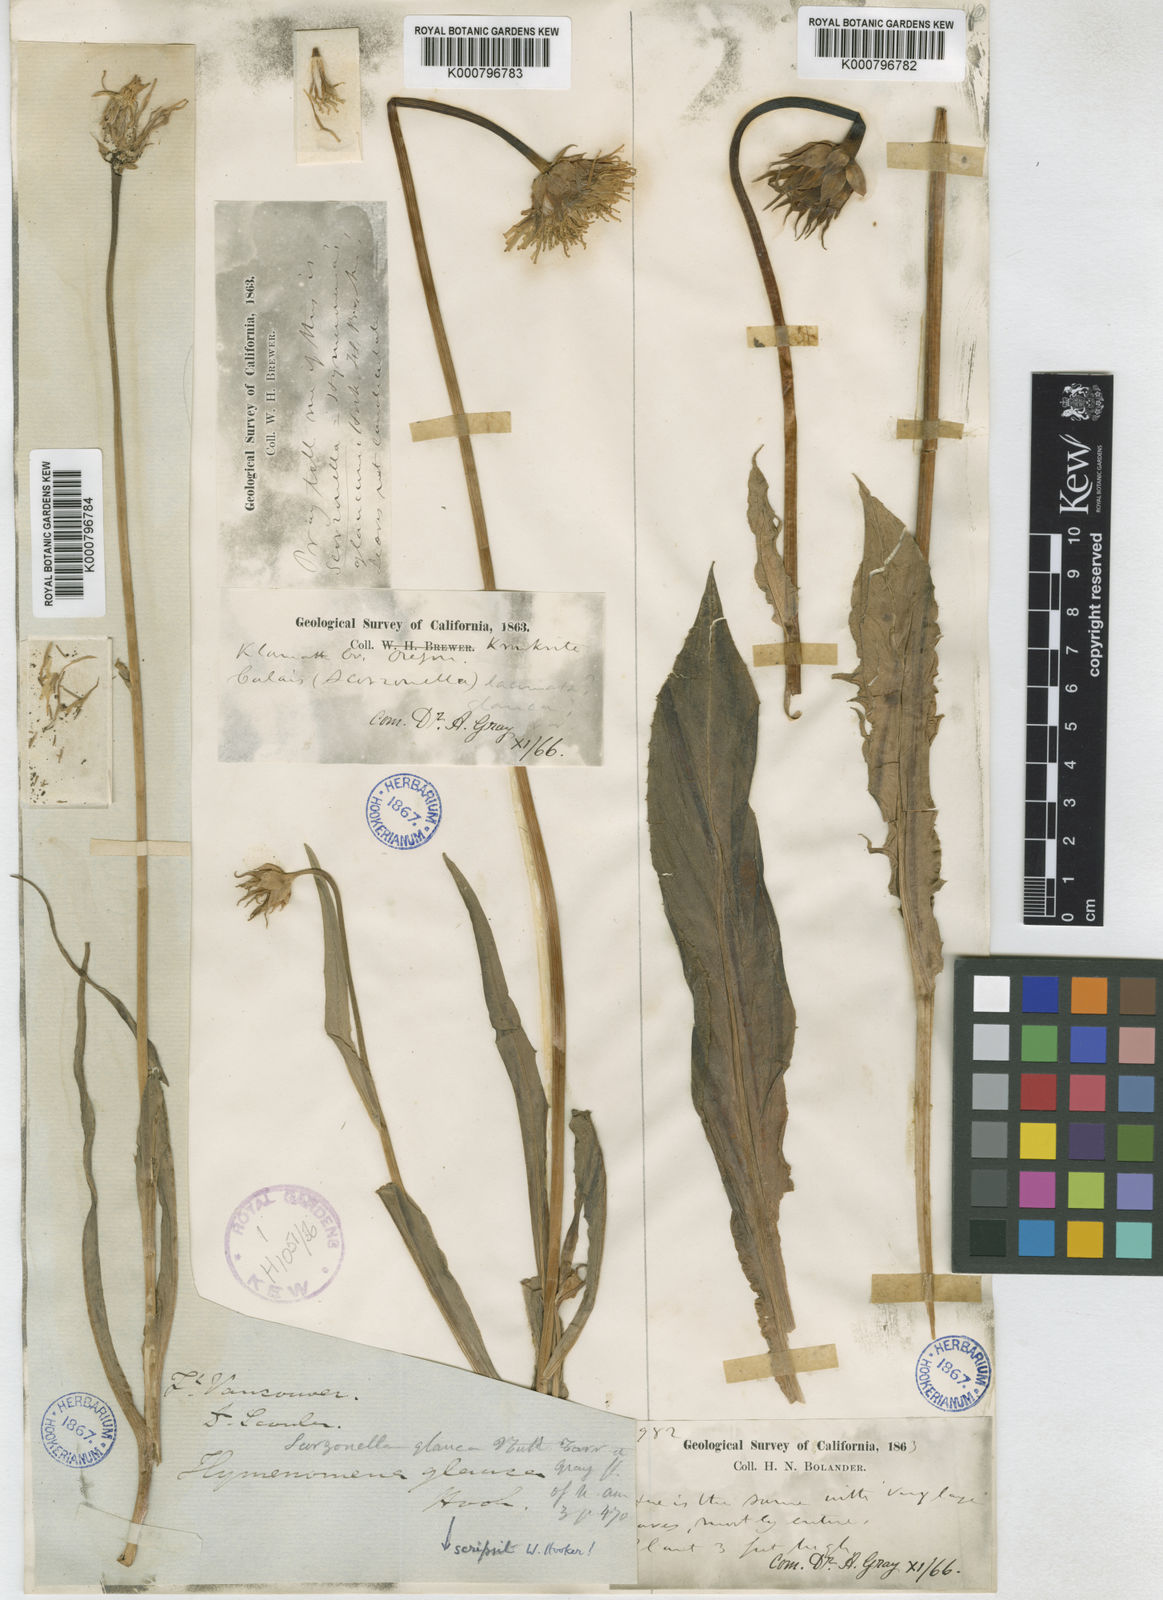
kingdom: Plantae
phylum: Tracheophyta
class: Magnoliopsida
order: Asterales
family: Asteraceae
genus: Microseris
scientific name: Microseris laciniata
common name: Cut-leaf microseris
